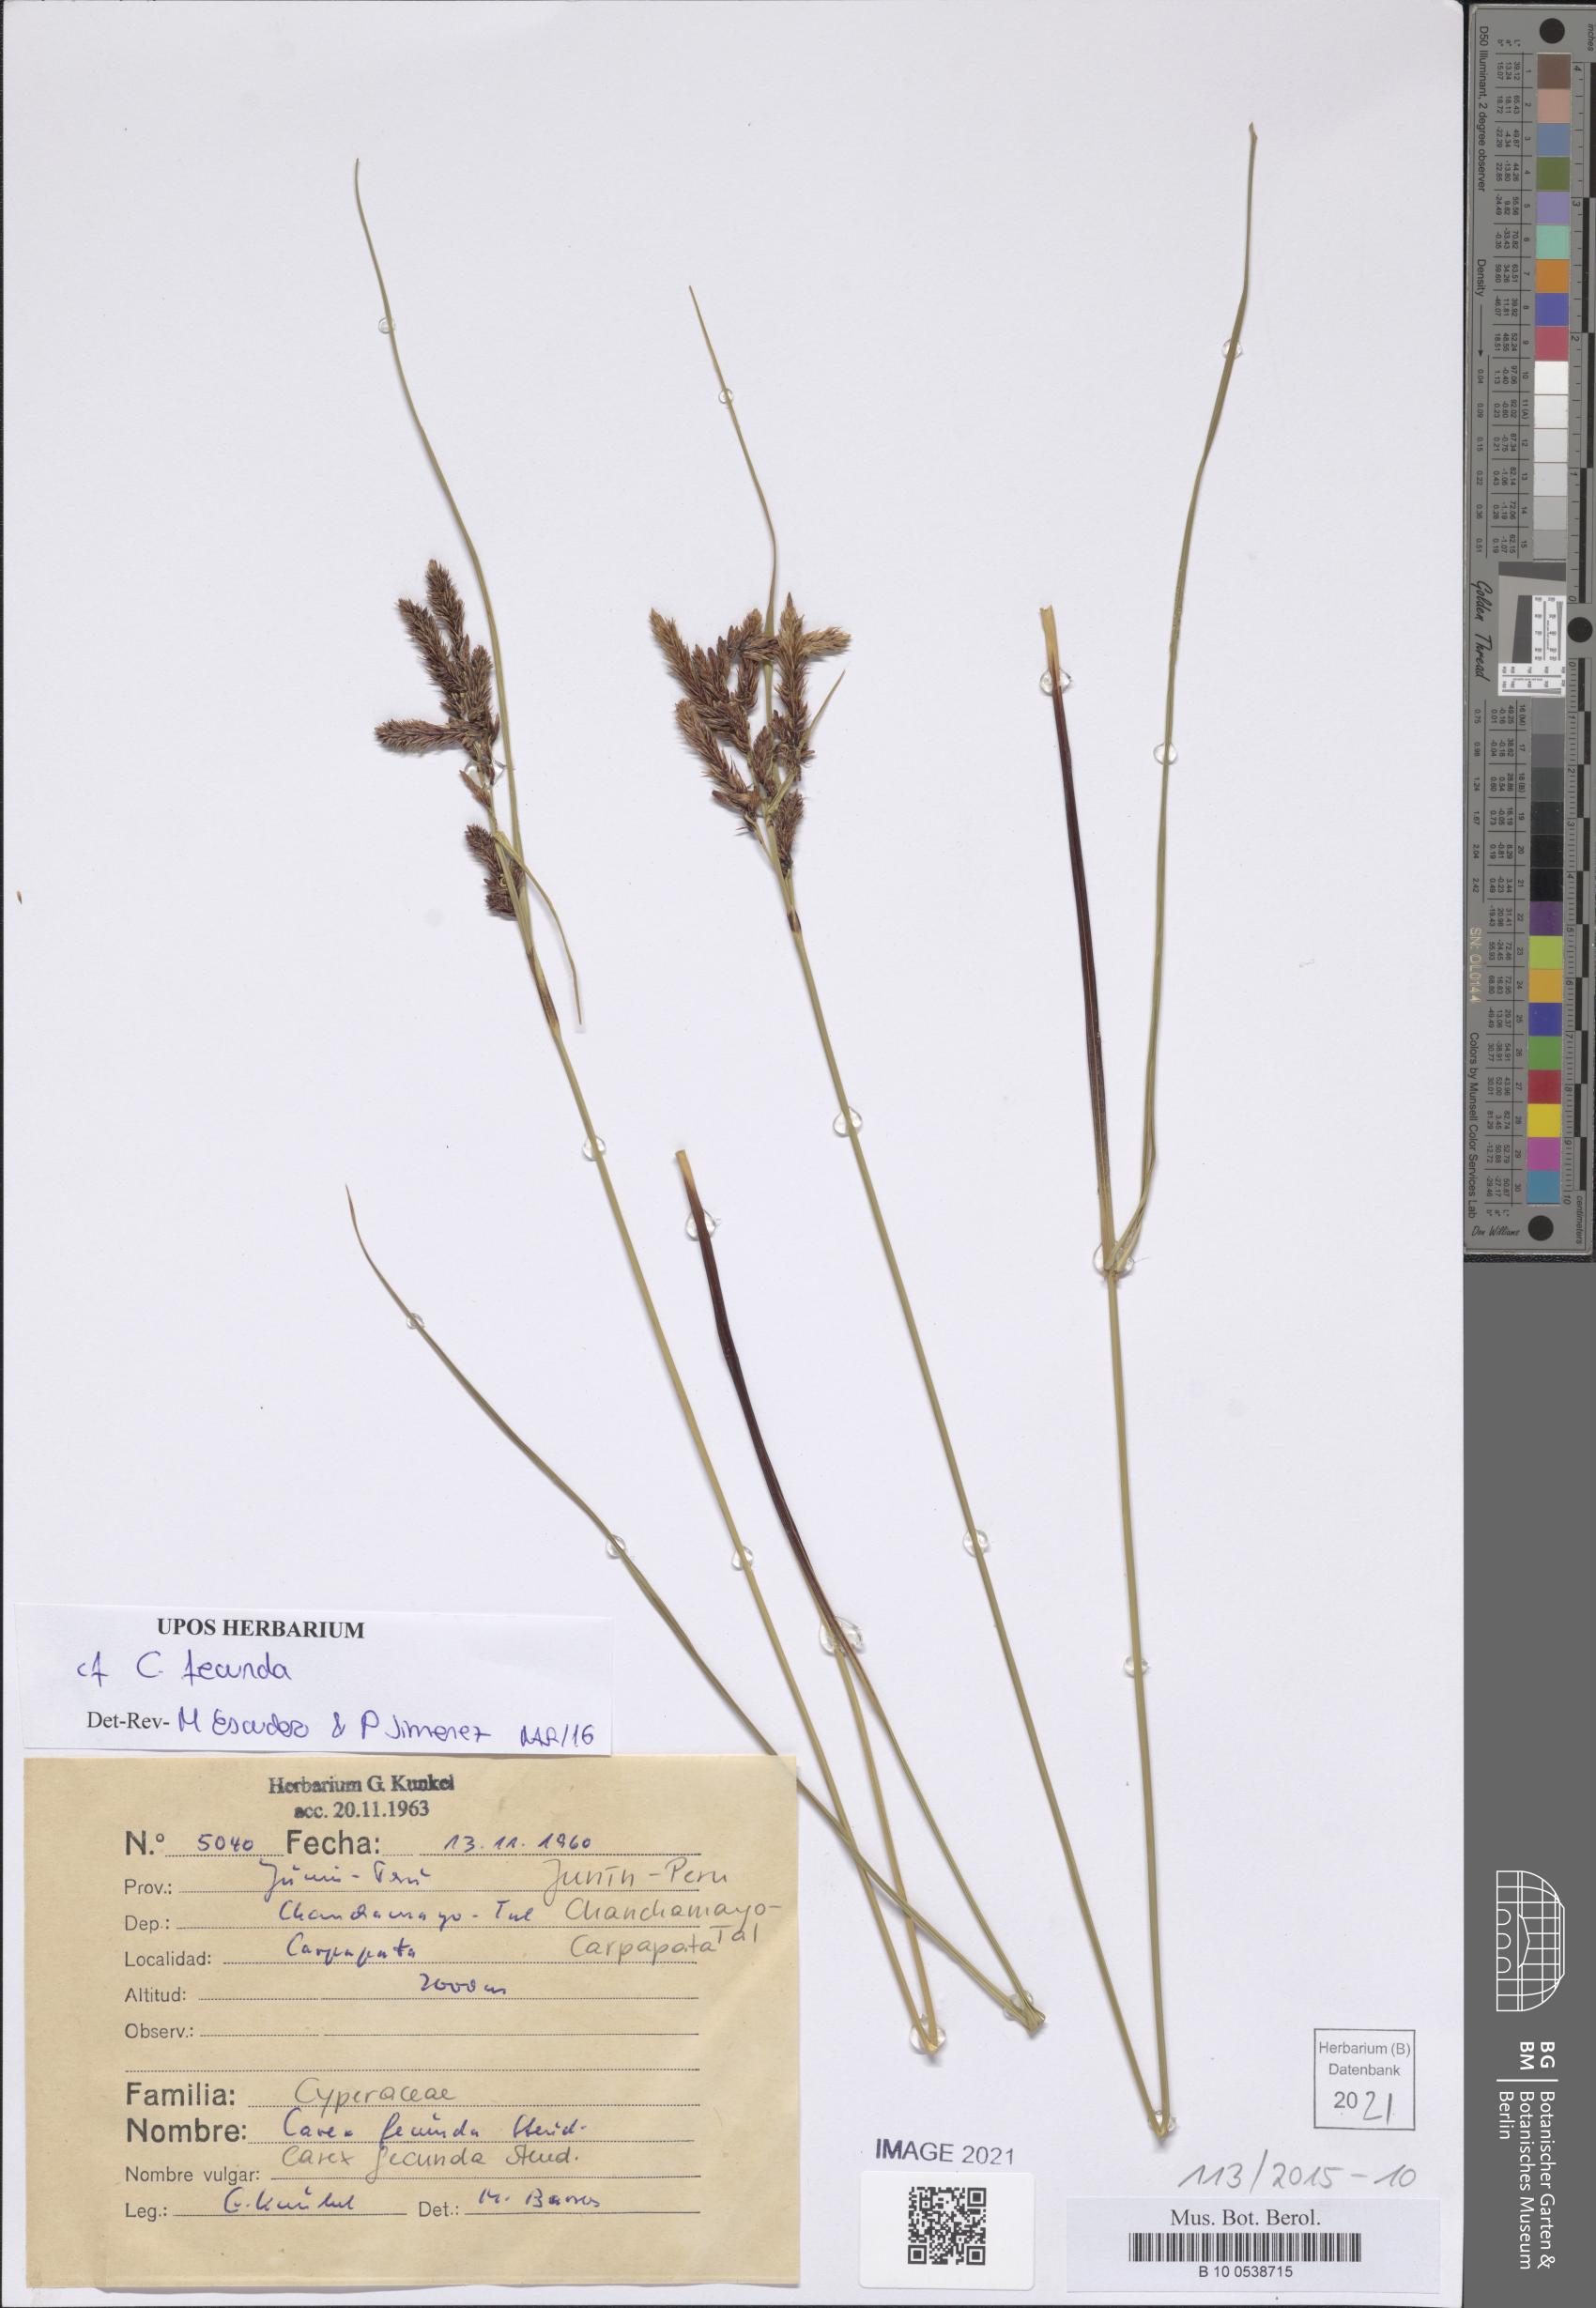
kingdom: Plantae
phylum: Tracheophyta
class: Liliopsida
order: Poales
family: Cyperaceae
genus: Carex
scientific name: Carex fecunda
